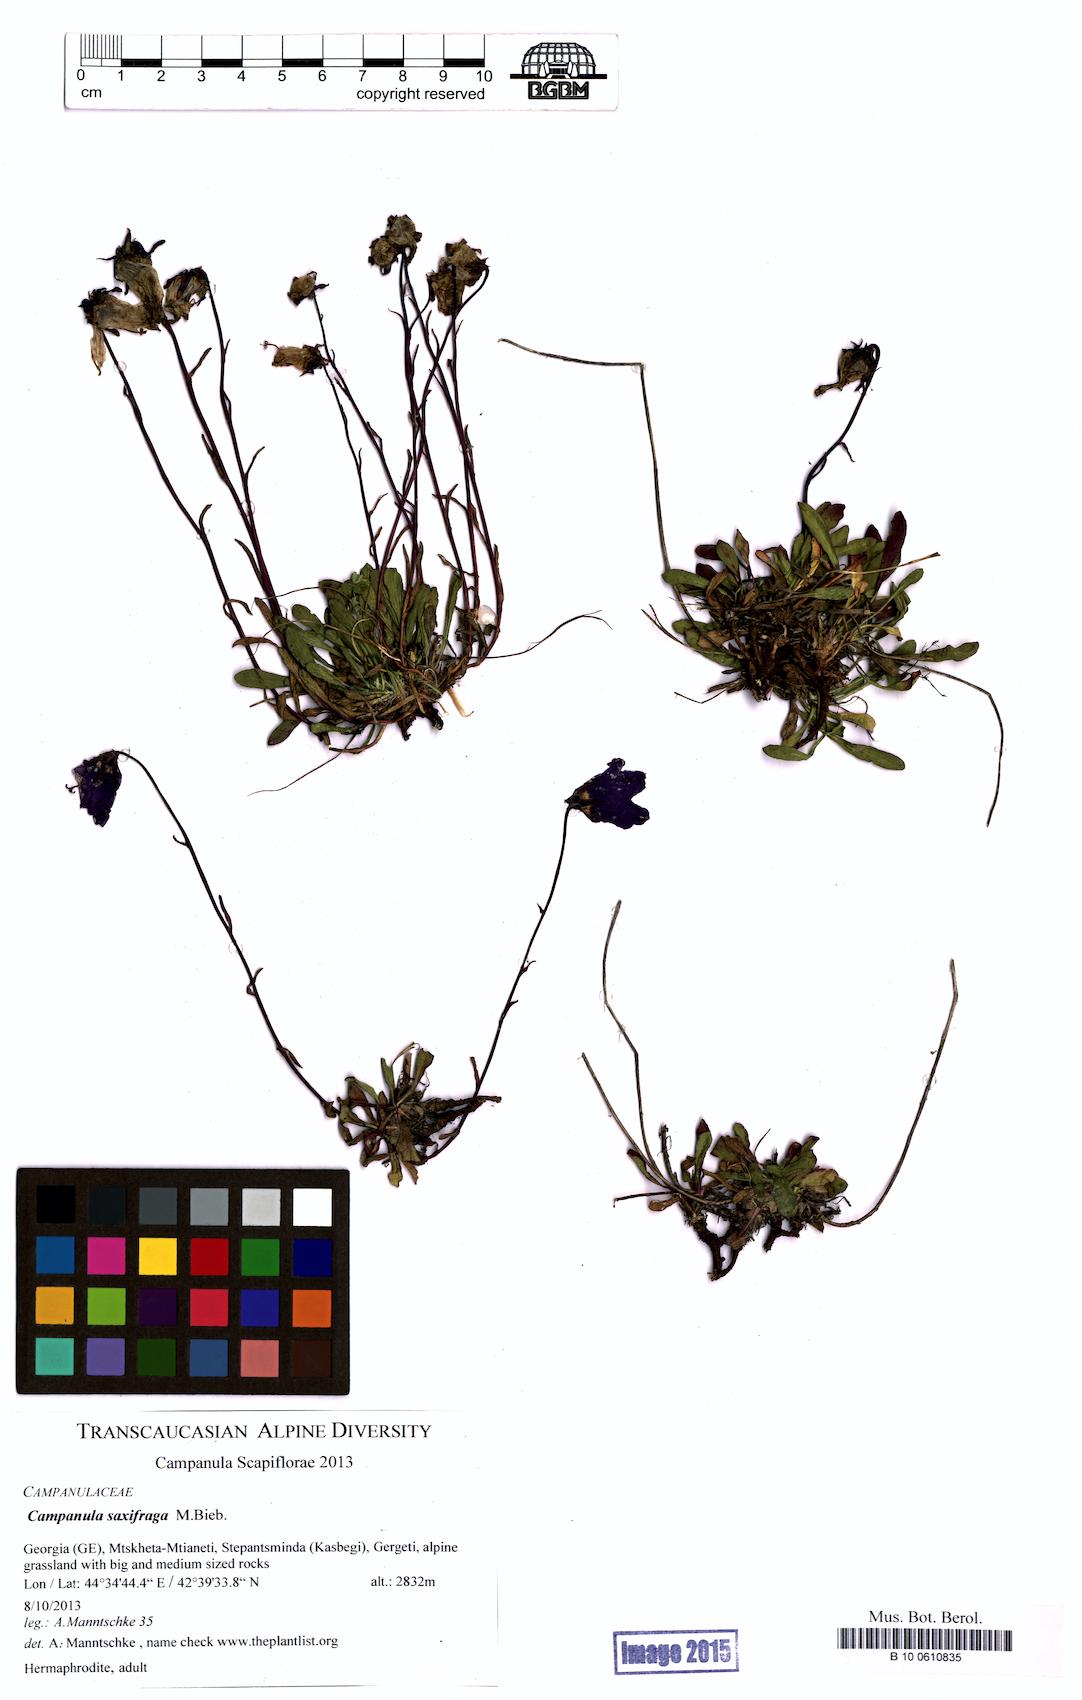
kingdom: Plantae
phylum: Tracheophyta
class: Magnoliopsida
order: Asterales
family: Campanulaceae
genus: Campanula
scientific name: Campanula saxifraga
